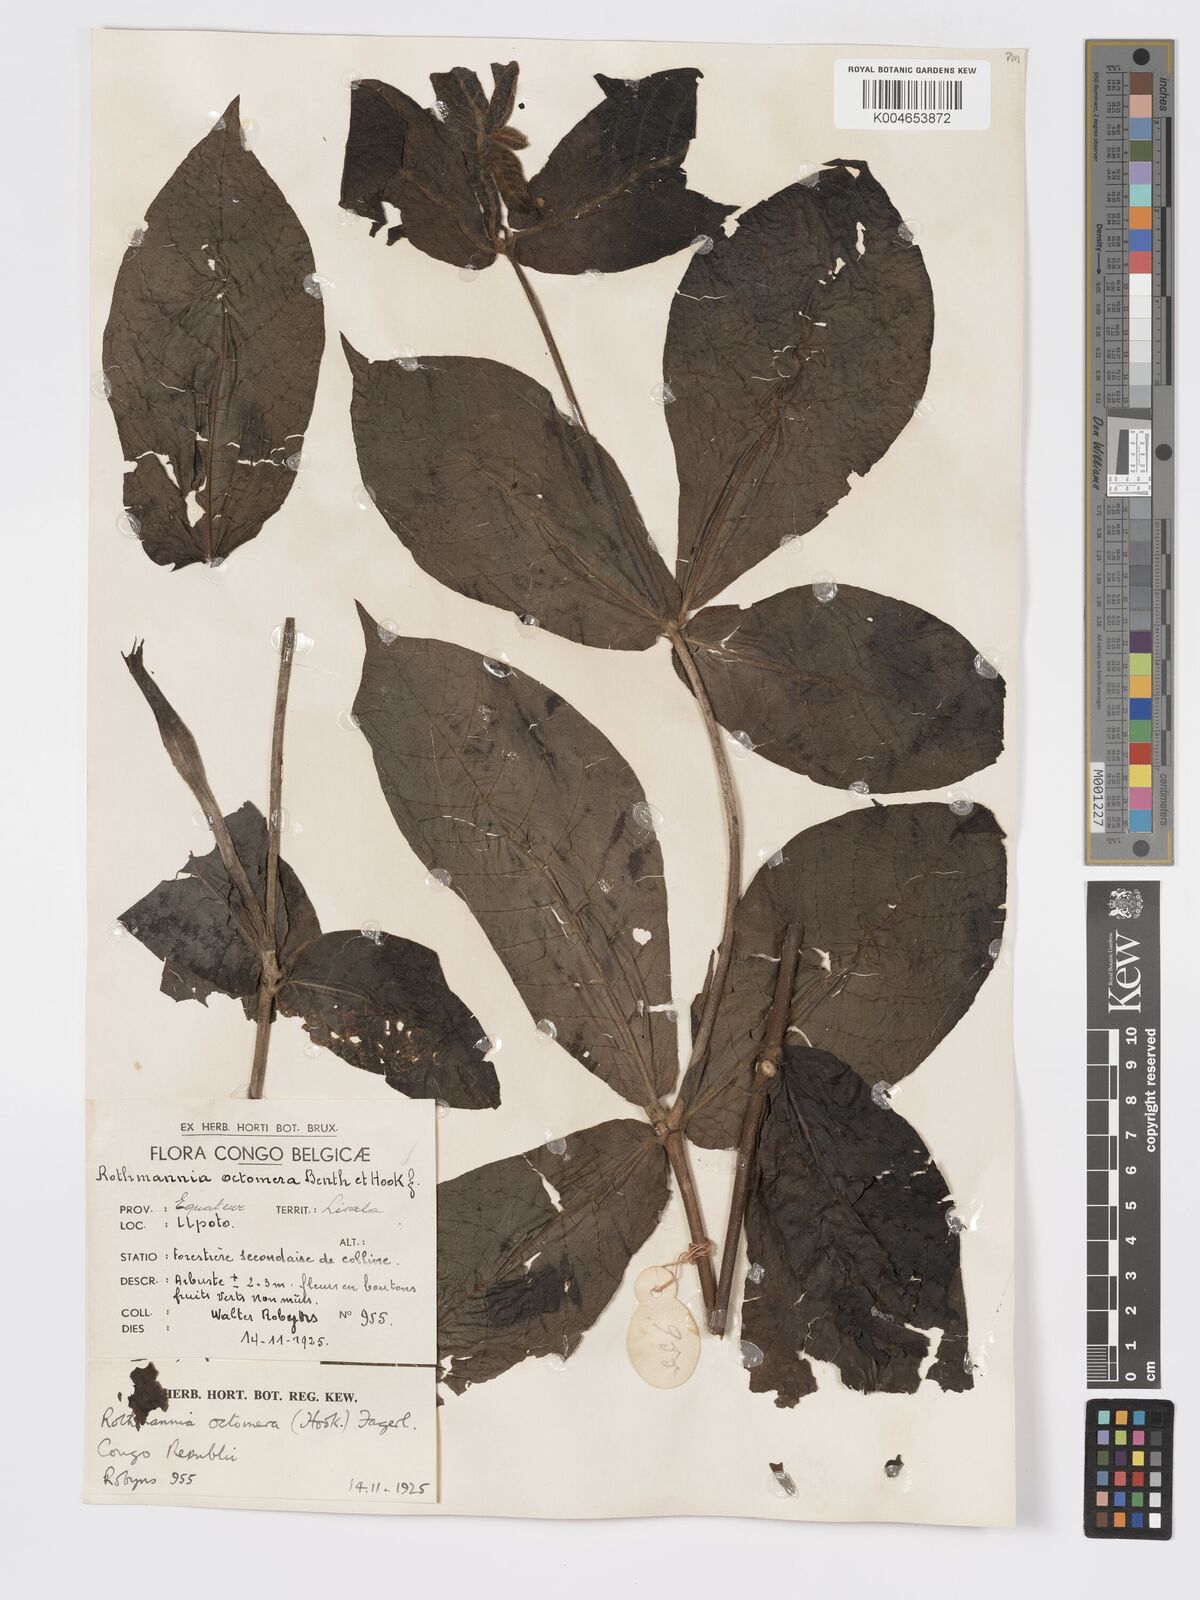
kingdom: Plantae
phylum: Tracheophyta
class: Magnoliopsida
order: Gentianales
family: Rubiaceae
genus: Rothmannia
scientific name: Rothmannia octomera
